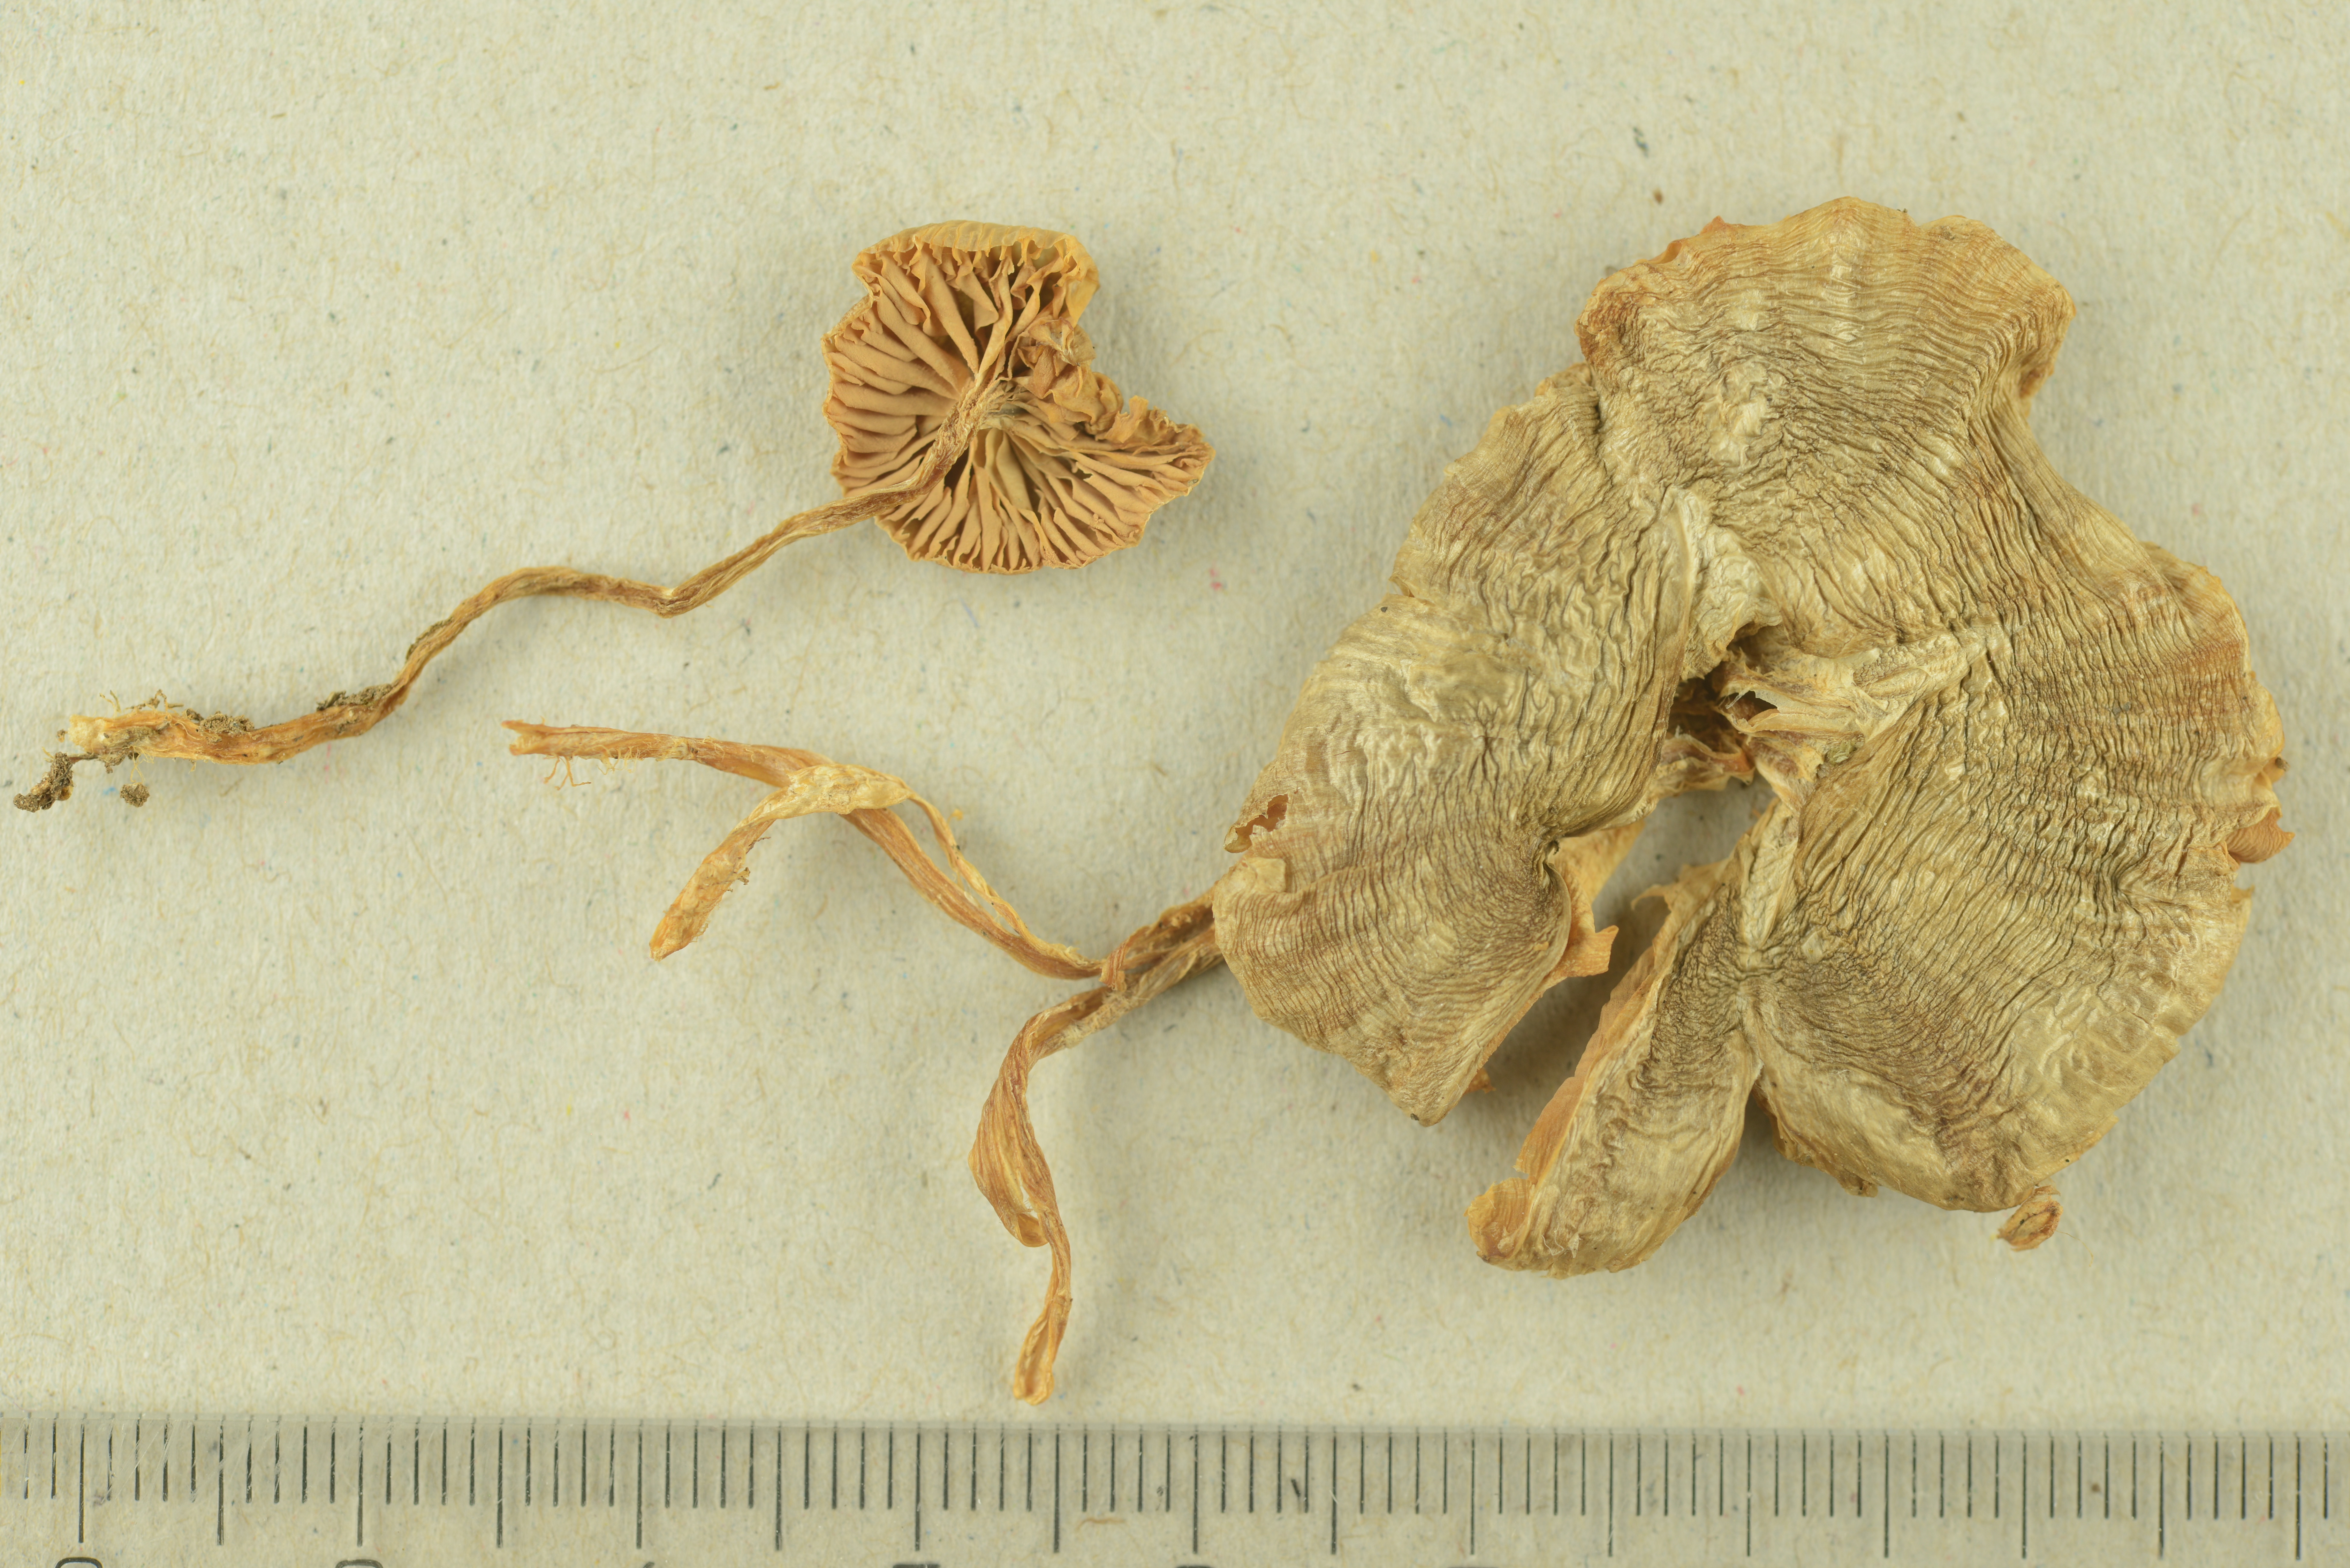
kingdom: Fungi
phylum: Basidiomycota
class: Agaricomycetes
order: Agaricales
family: Entolomataceae
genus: Entoloma
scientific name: Entoloma silvae-frondosae
